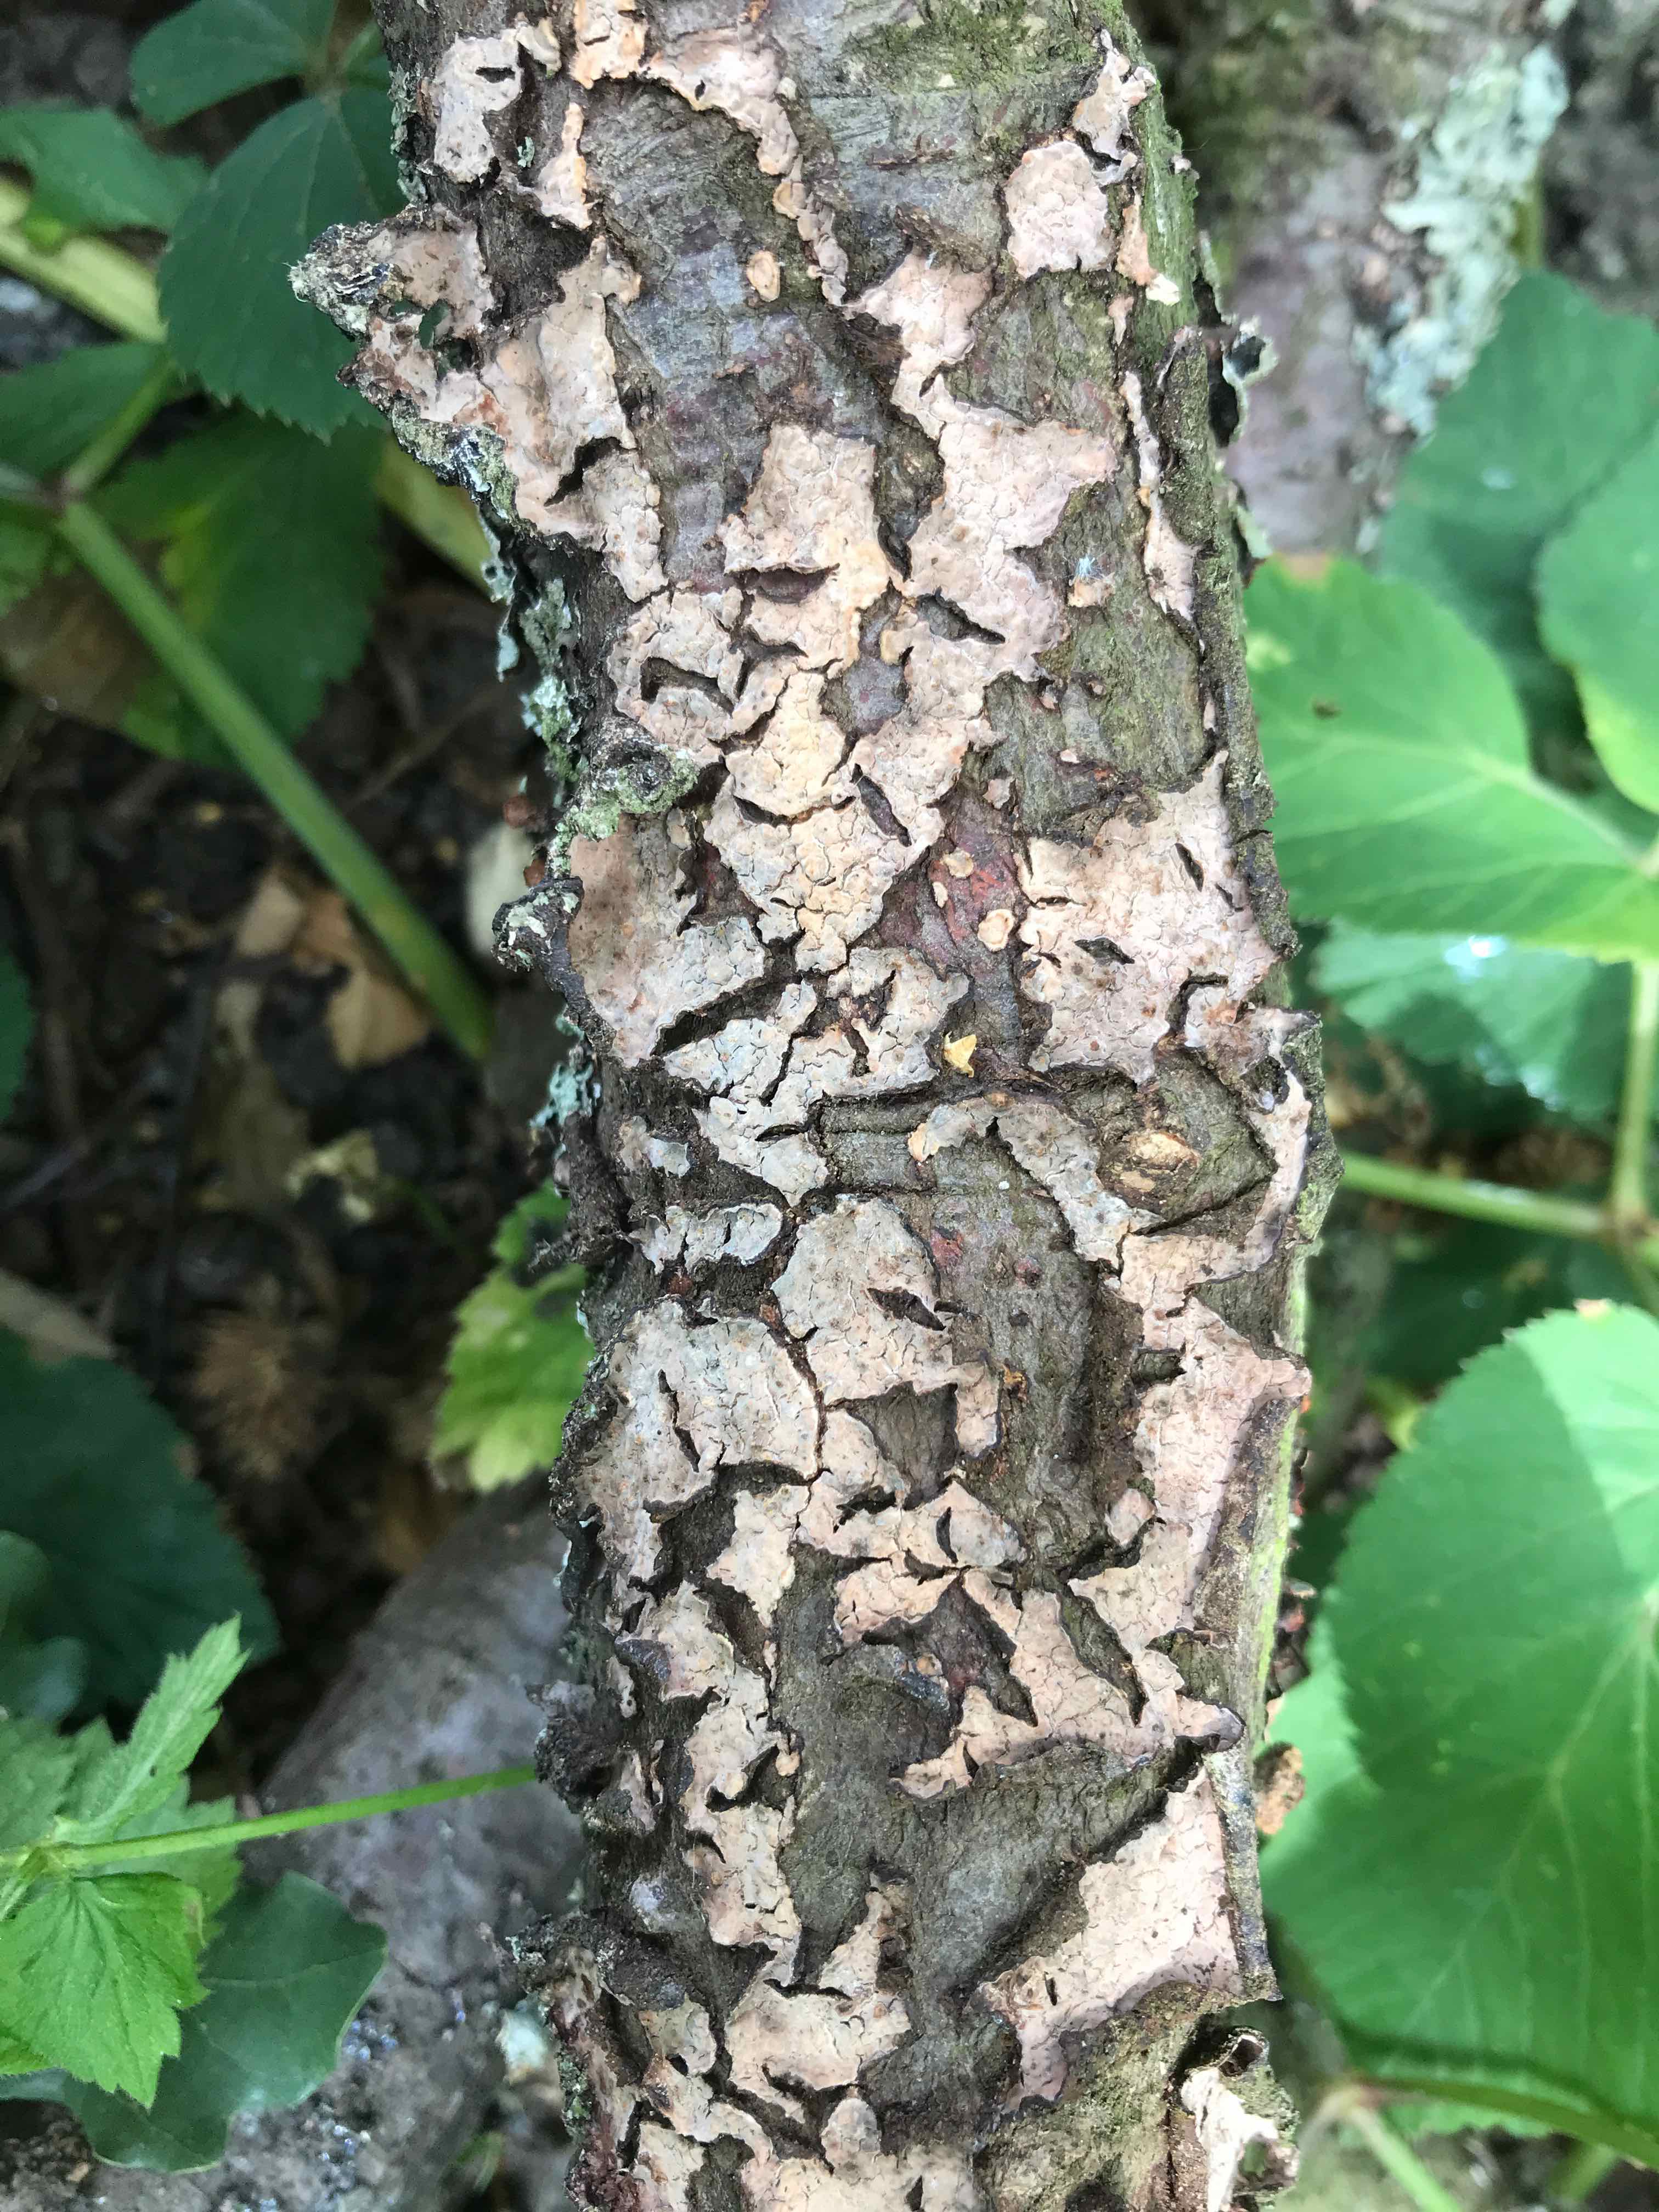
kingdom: Fungi
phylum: Basidiomycota
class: Agaricomycetes
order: Russulales
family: Peniophoraceae
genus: Peniophora
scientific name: Peniophora
